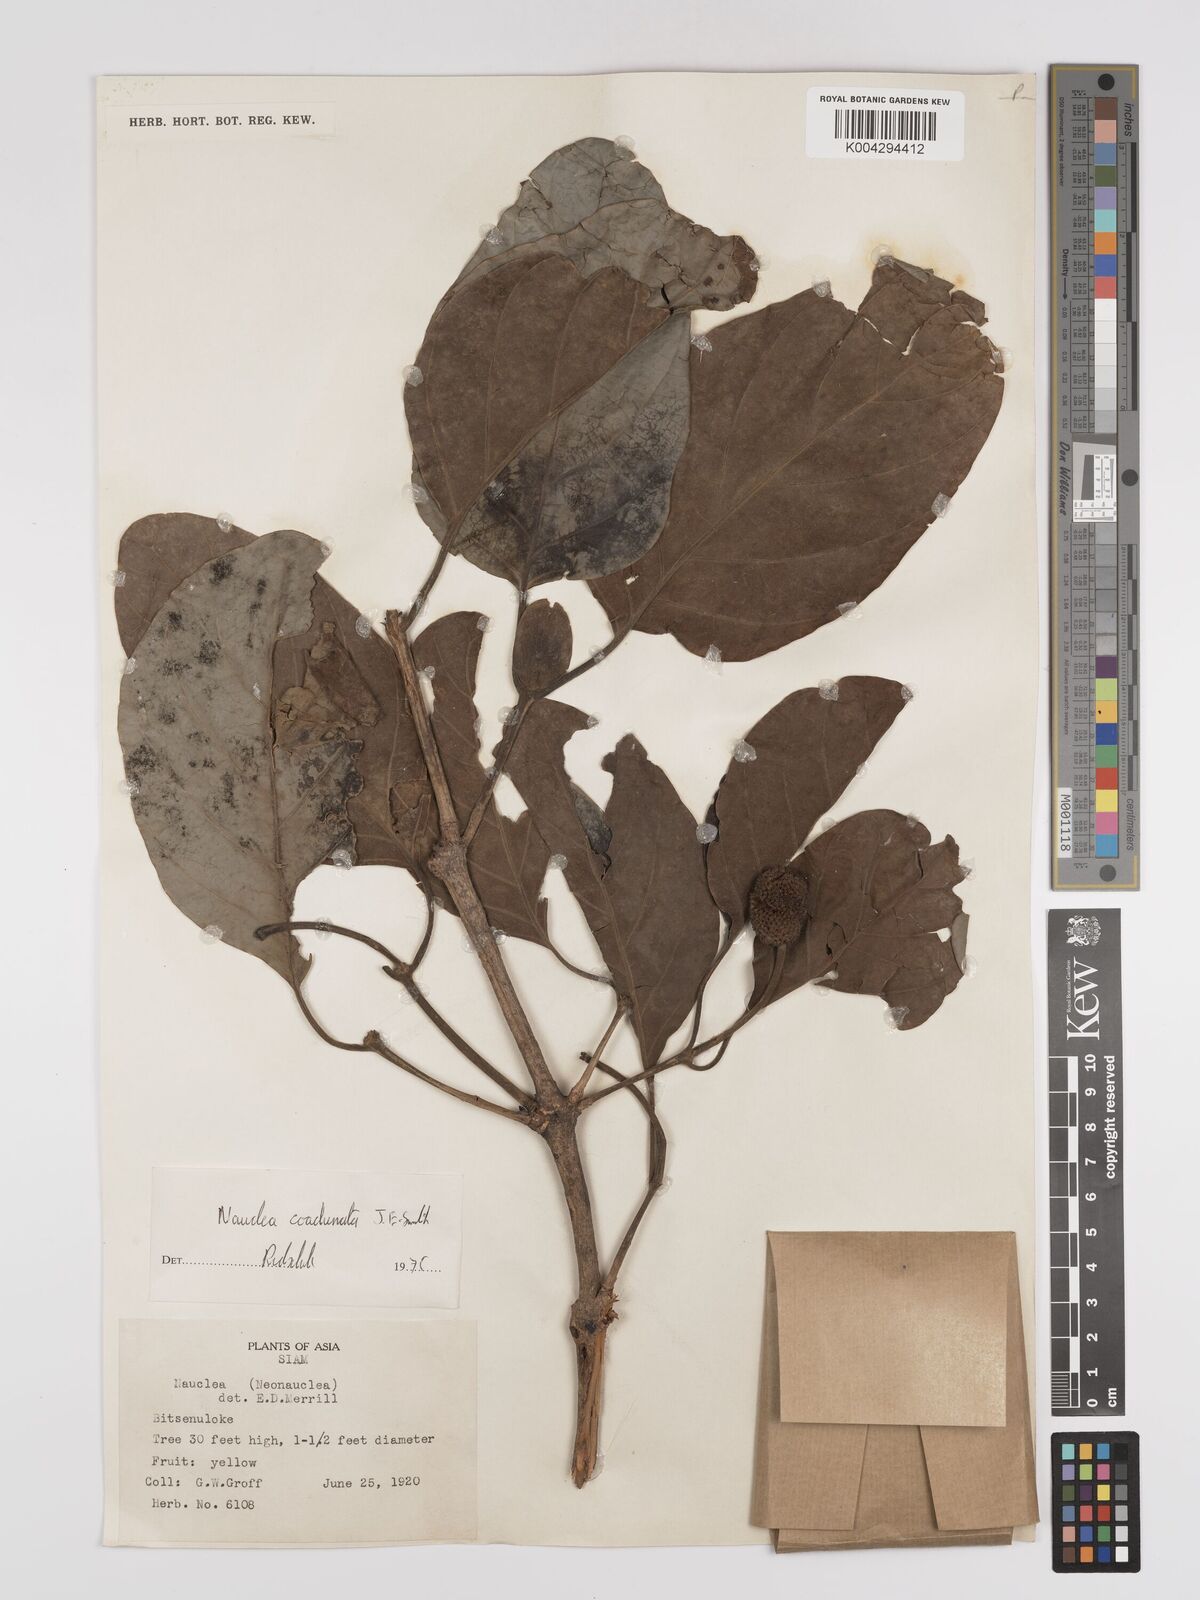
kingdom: Plantae
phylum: Tracheophyta
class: Magnoliopsida
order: Gentianales
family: Rubiaceae
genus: Nauclea
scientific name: Nauclea orientalis
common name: Leichhardt-pine
